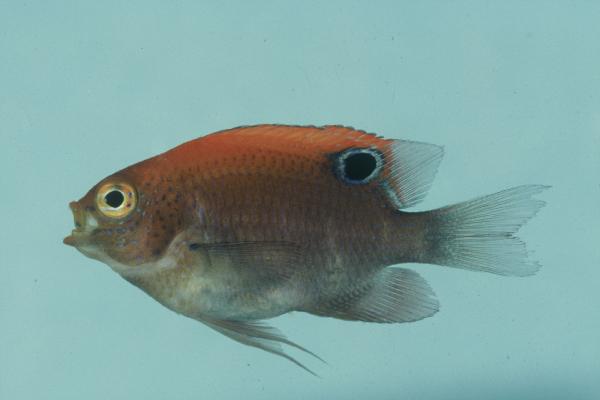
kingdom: Animalia
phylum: Chordata
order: Perciformes
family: Pomacentridae
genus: Pomacentrus
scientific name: Pomacentrus
